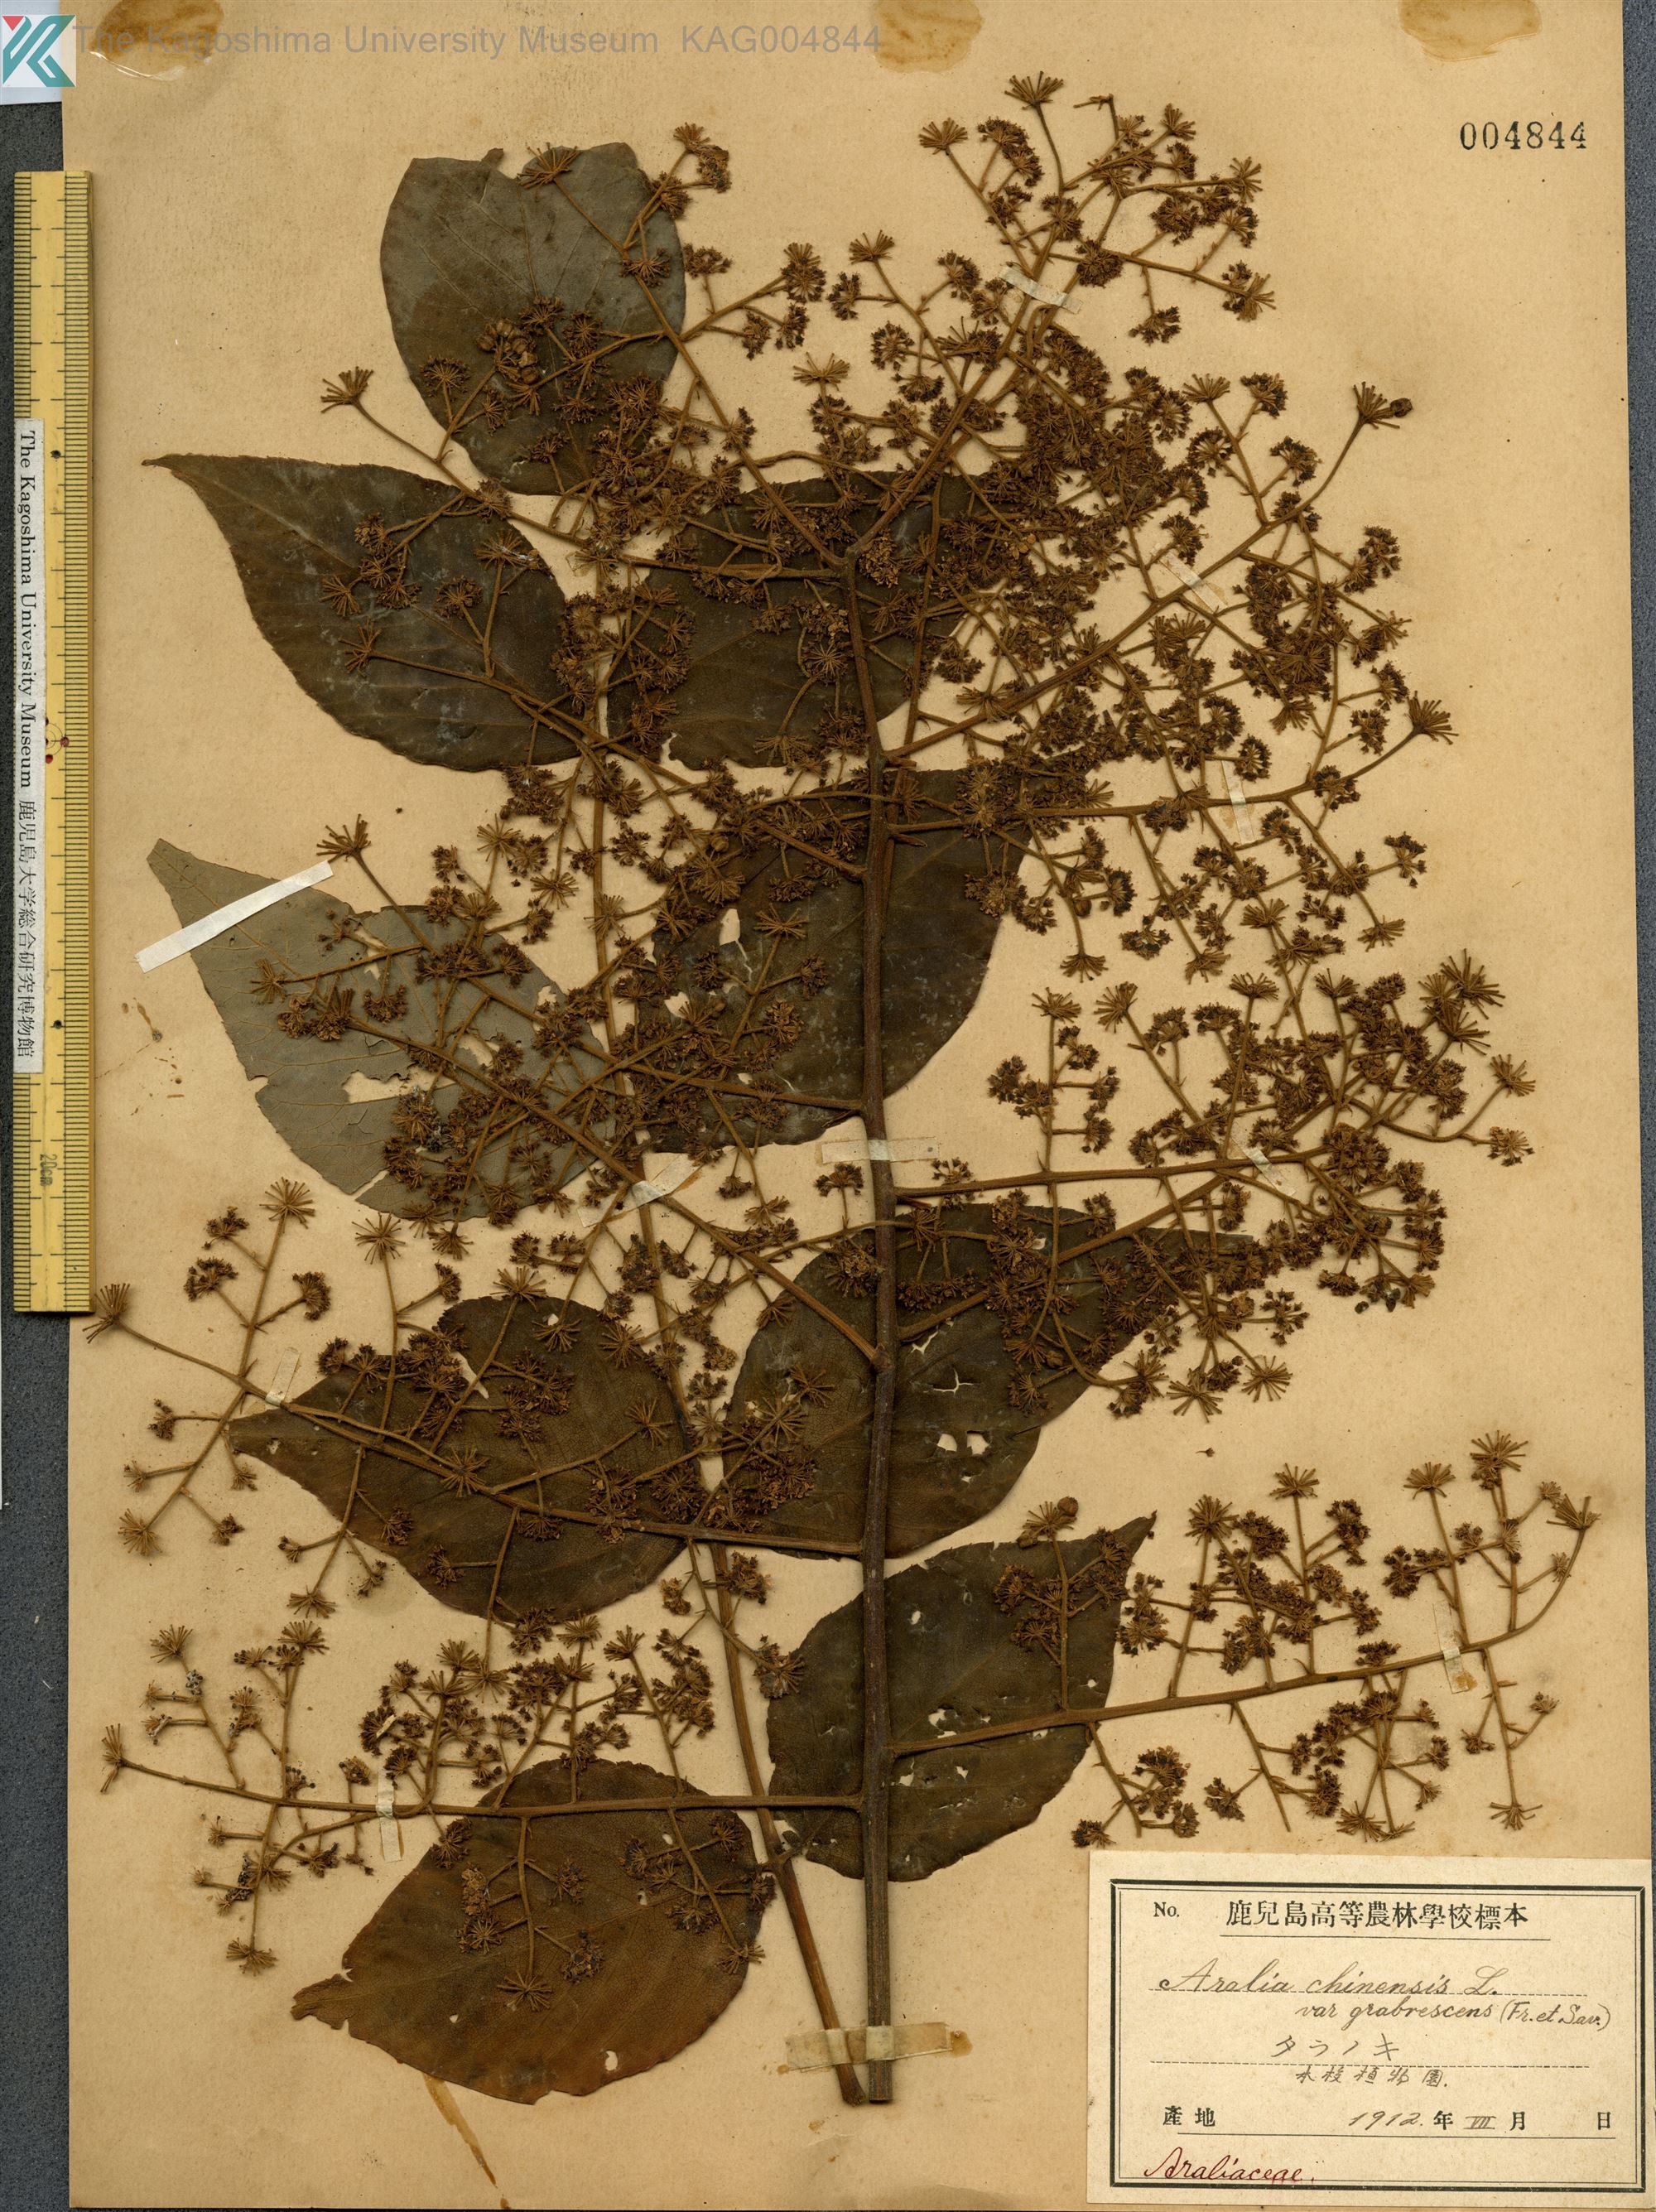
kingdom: Plantae
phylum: Tracheophyta
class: Magnoliopsida
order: Apiales
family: Araliaceae
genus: Aralia
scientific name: Aralia elata
